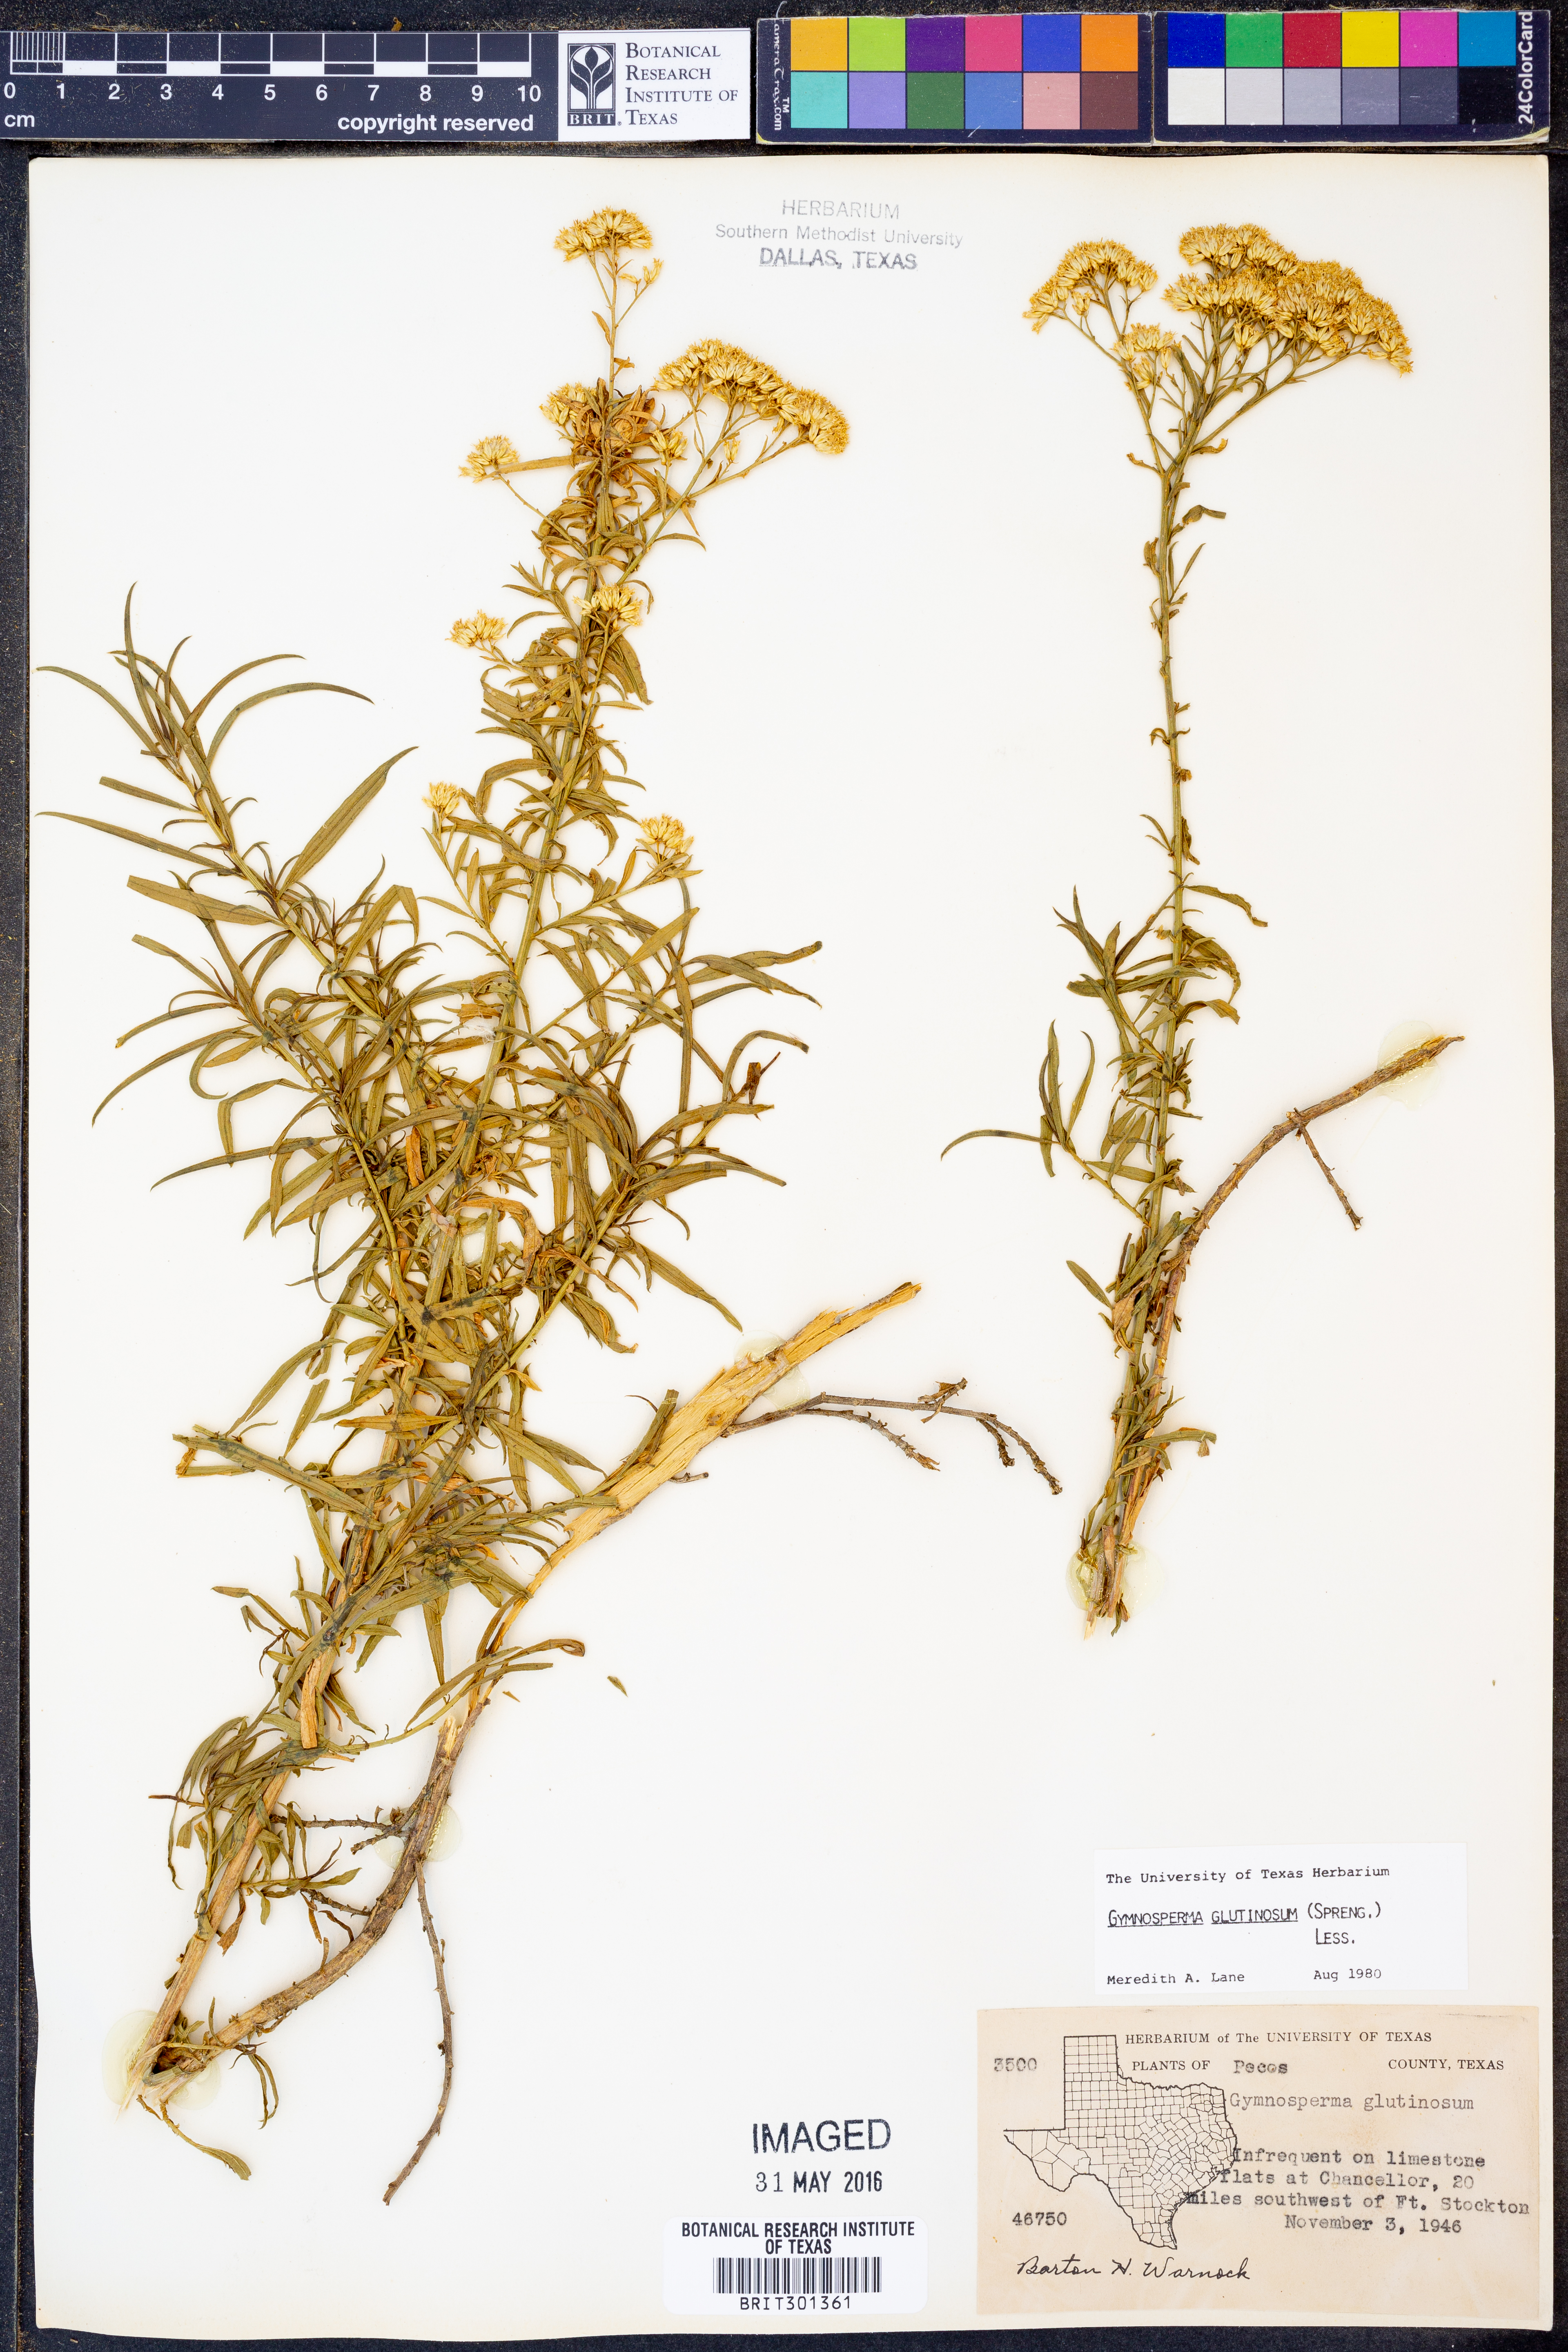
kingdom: Plantae
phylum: Tracheophyta
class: Magnoliopsida
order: Asterales
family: Asteraceae
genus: Gymnosperma
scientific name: Gymnosperma glutinosum
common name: Gumhead
